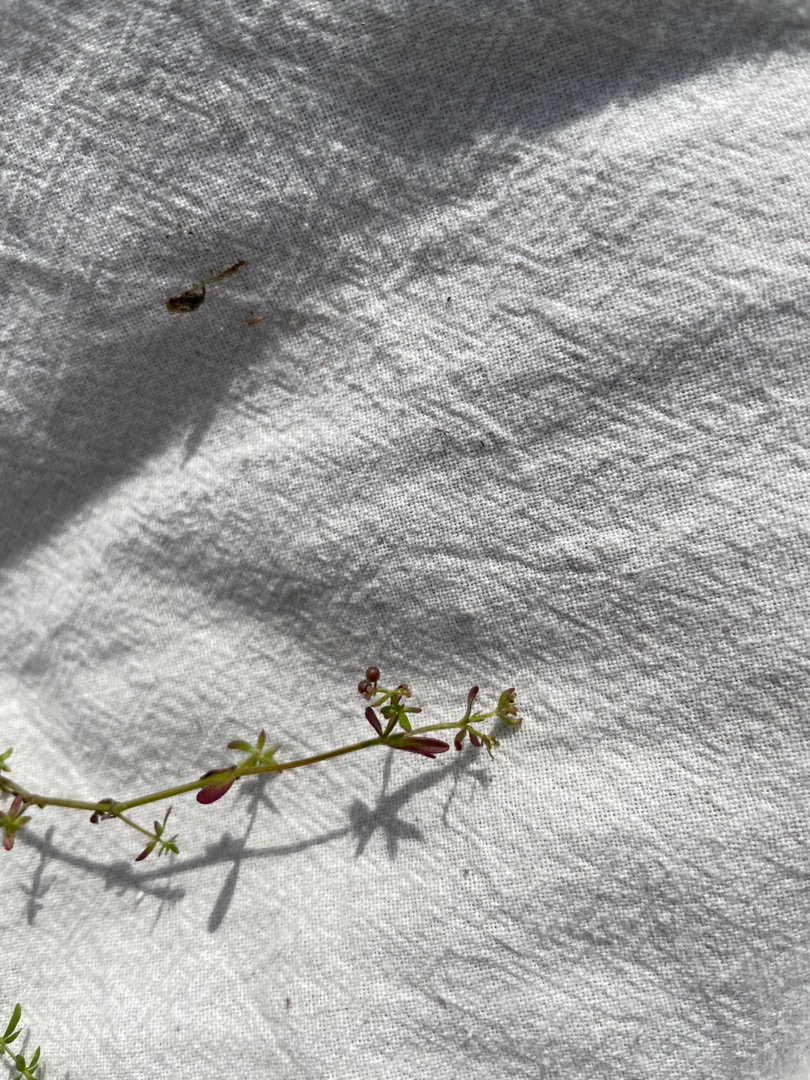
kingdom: Plantae
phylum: Tracheophyta
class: Magnoliopsida
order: Gentianales
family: Rubiaceae
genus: Galium
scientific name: Galium palustre
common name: Kær-snerre
